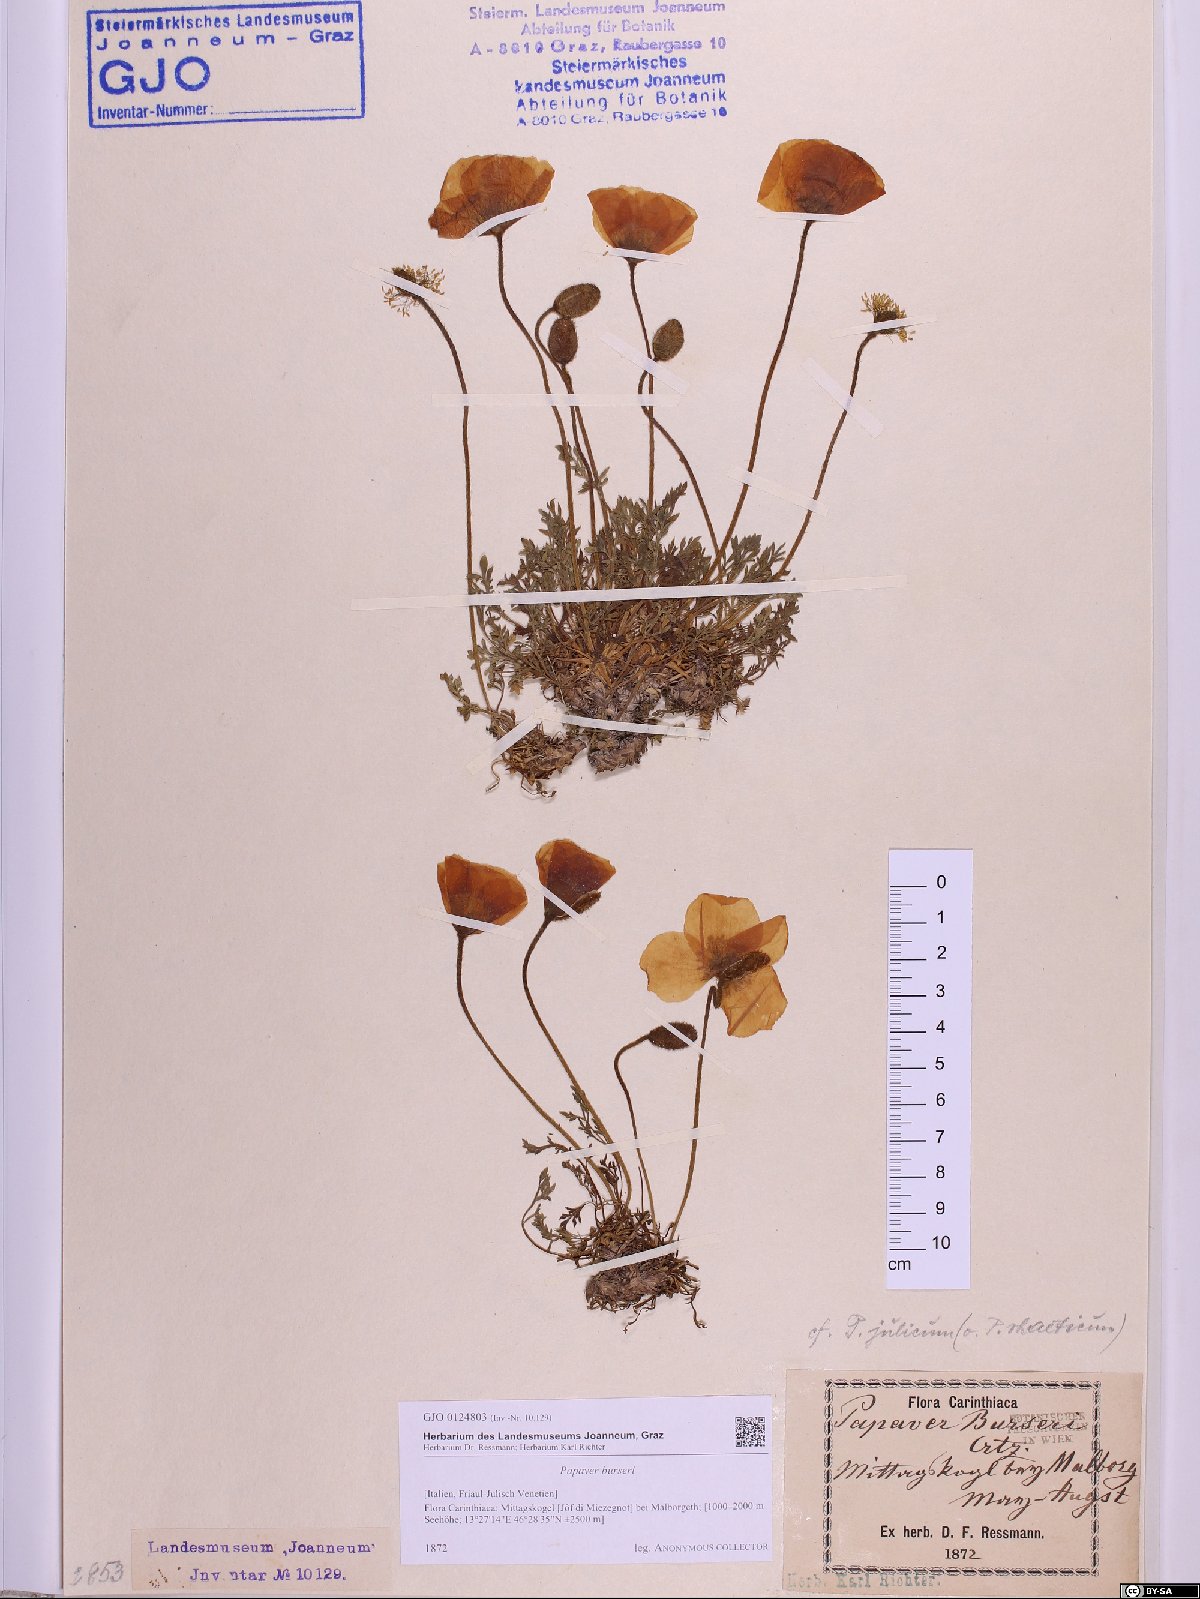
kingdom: Plantae
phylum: Tracheophyta
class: Magnoliopsida
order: Ranunculales
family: Papaveraceae
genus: Papaver
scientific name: Papaver alpinum
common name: Austrian poppy
